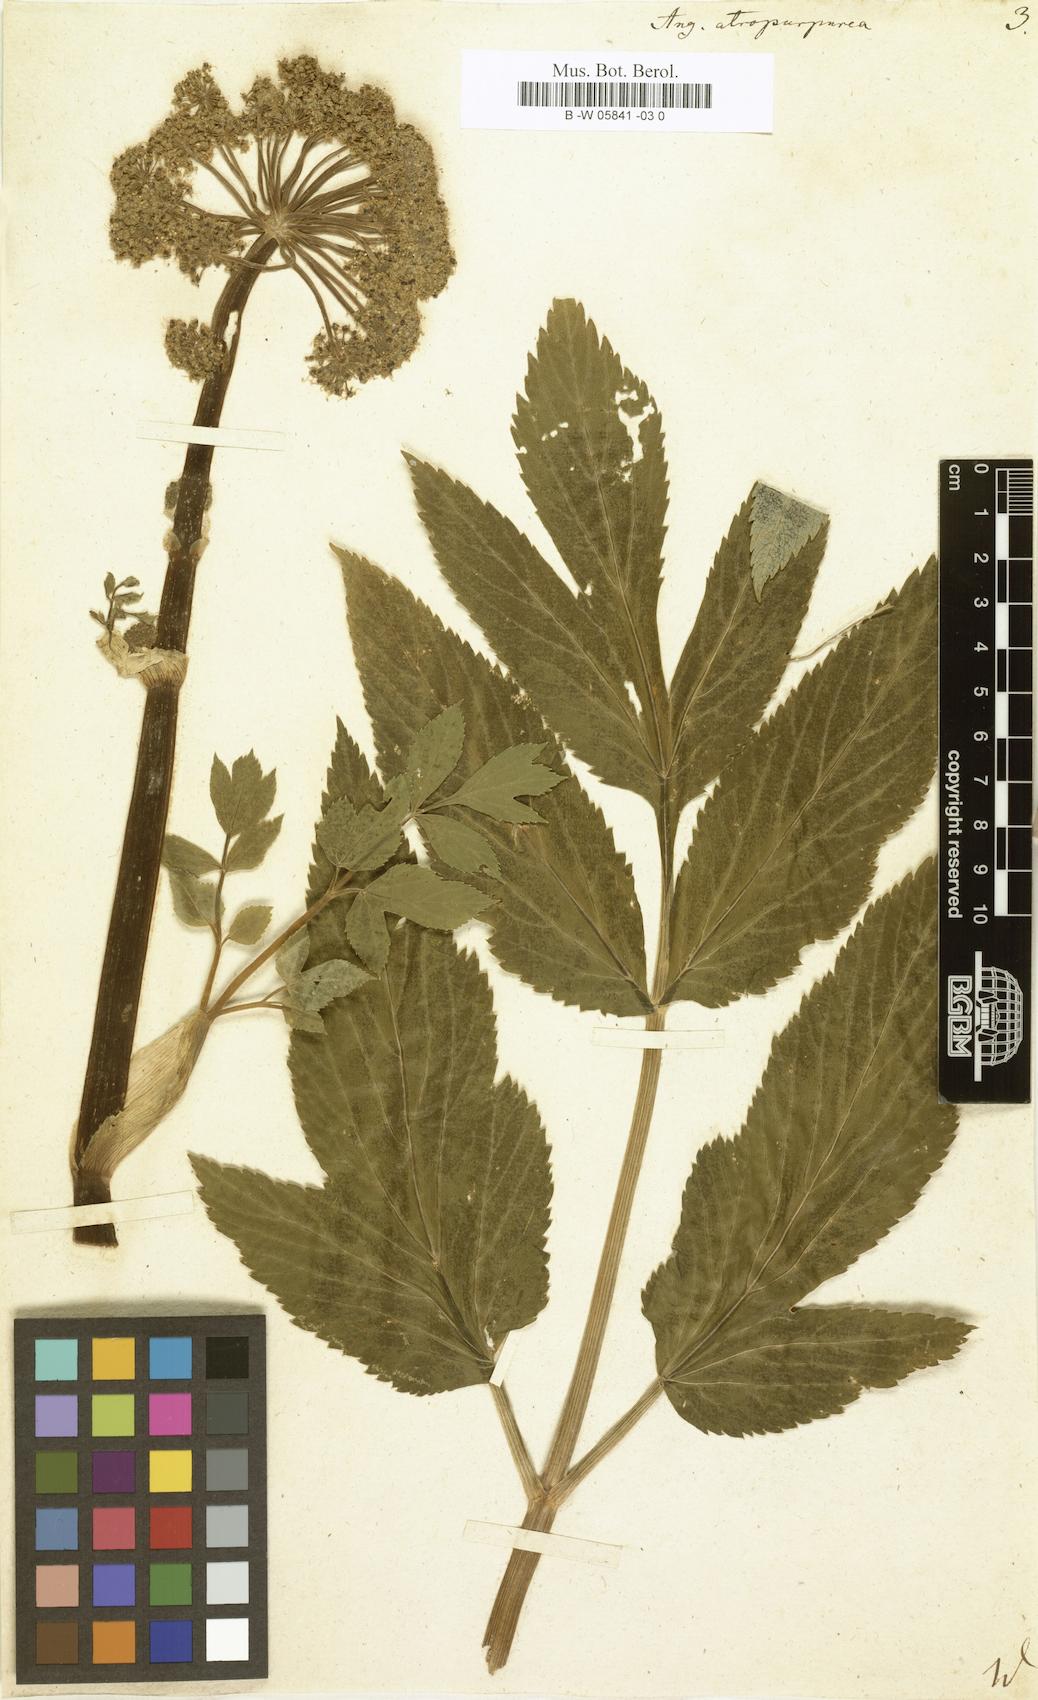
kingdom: Plantae
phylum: Tracheophyta
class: Magnoliopsida
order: Apiales
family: Apiaceae
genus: Angelica
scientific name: Angelica atropurpurea
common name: Great angelica
